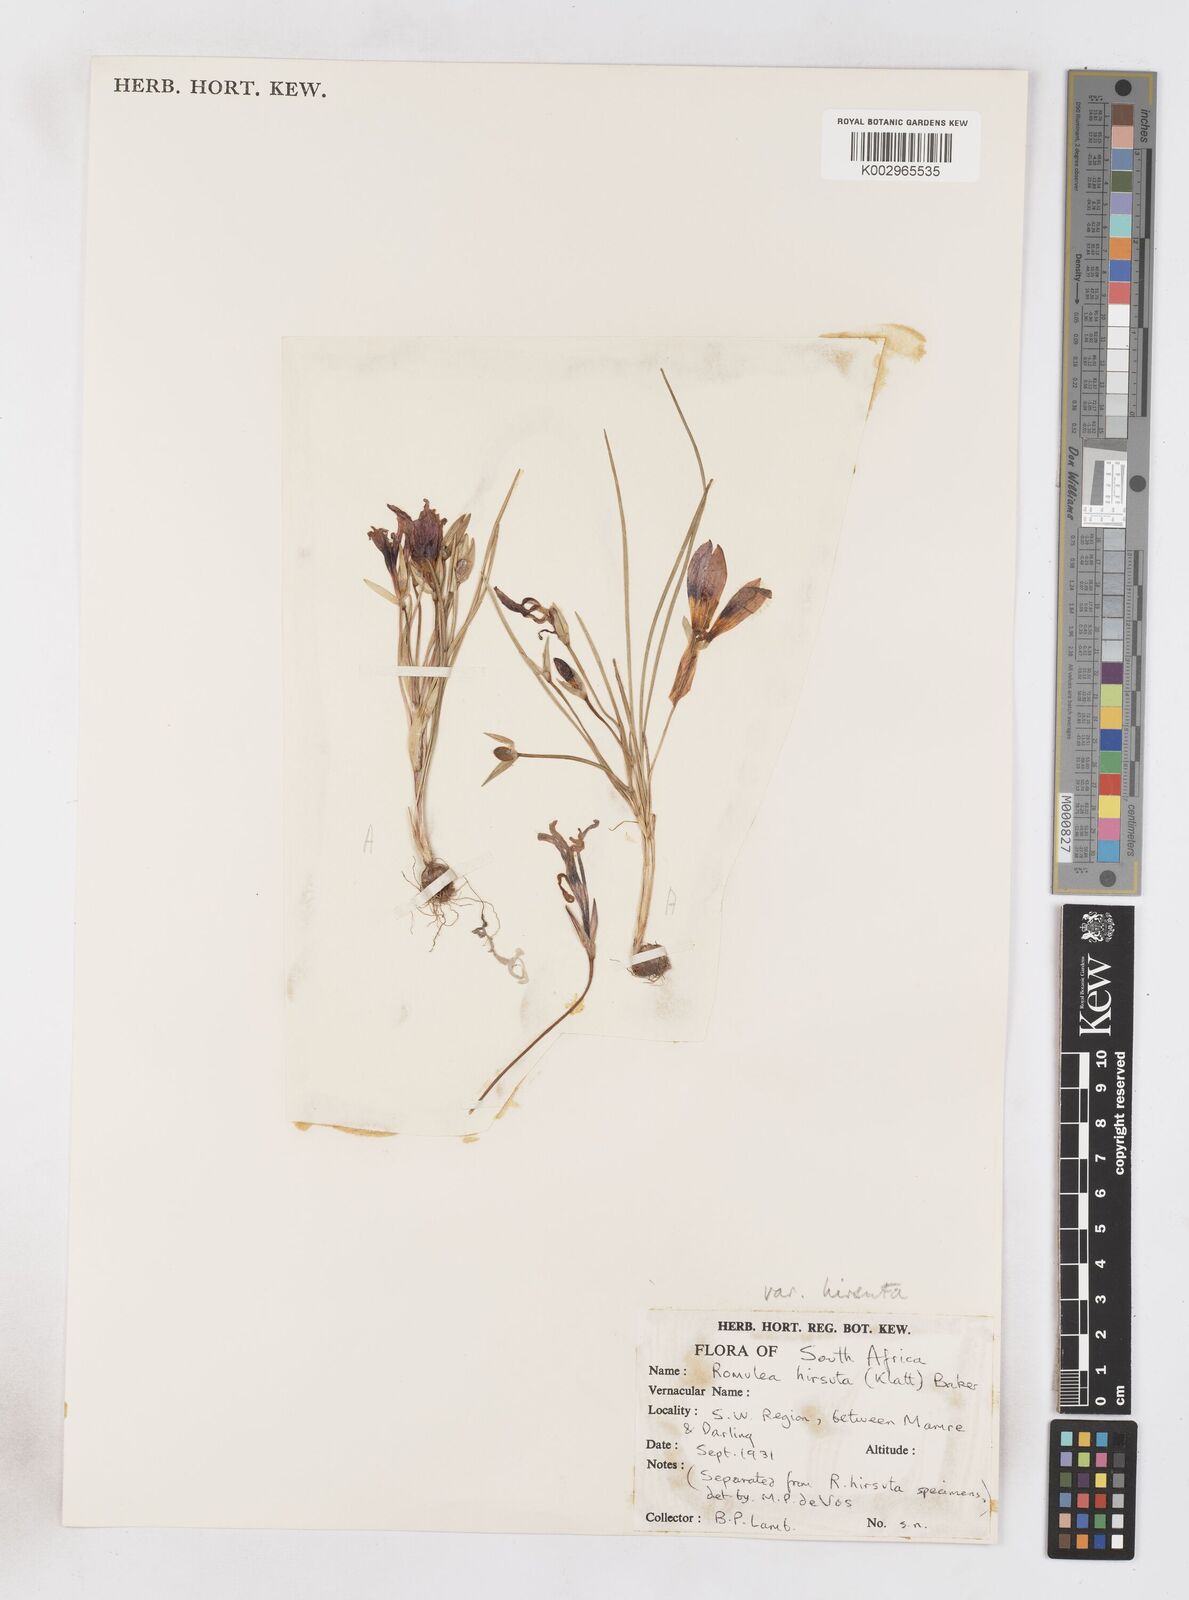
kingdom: Plantae
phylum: Tracheophyta
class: Liliopsida
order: Asparagales
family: Iridaceae
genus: Romulea
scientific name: Romulea hirsuta
